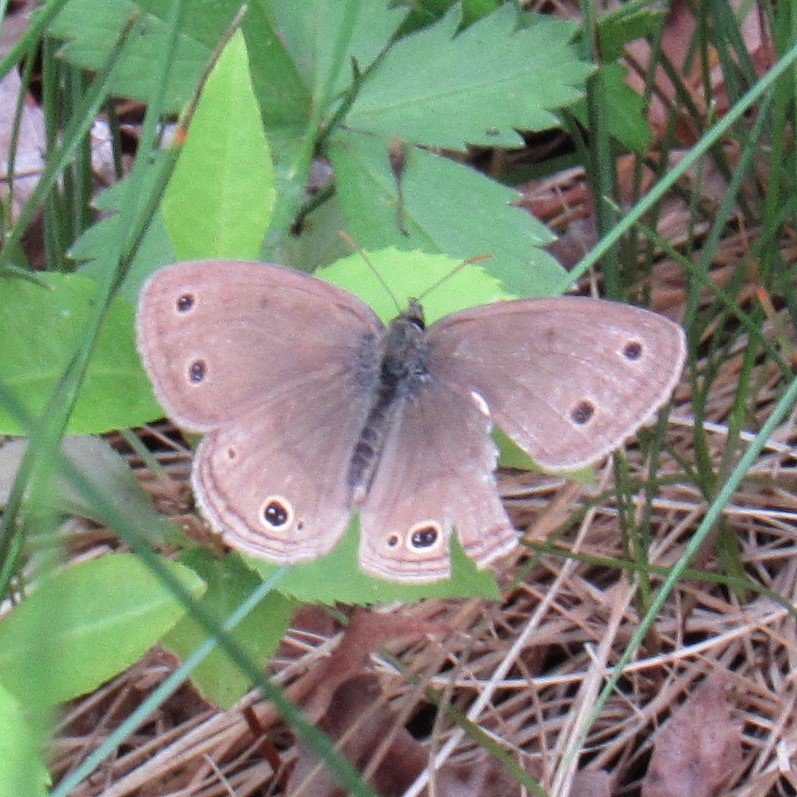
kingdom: Animalia
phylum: Arthropoda
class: Insecta
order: Lepidoptera
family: Nymphalidae
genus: Euptychia
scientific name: Euptychia cymela
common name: Little Wood Satyr
